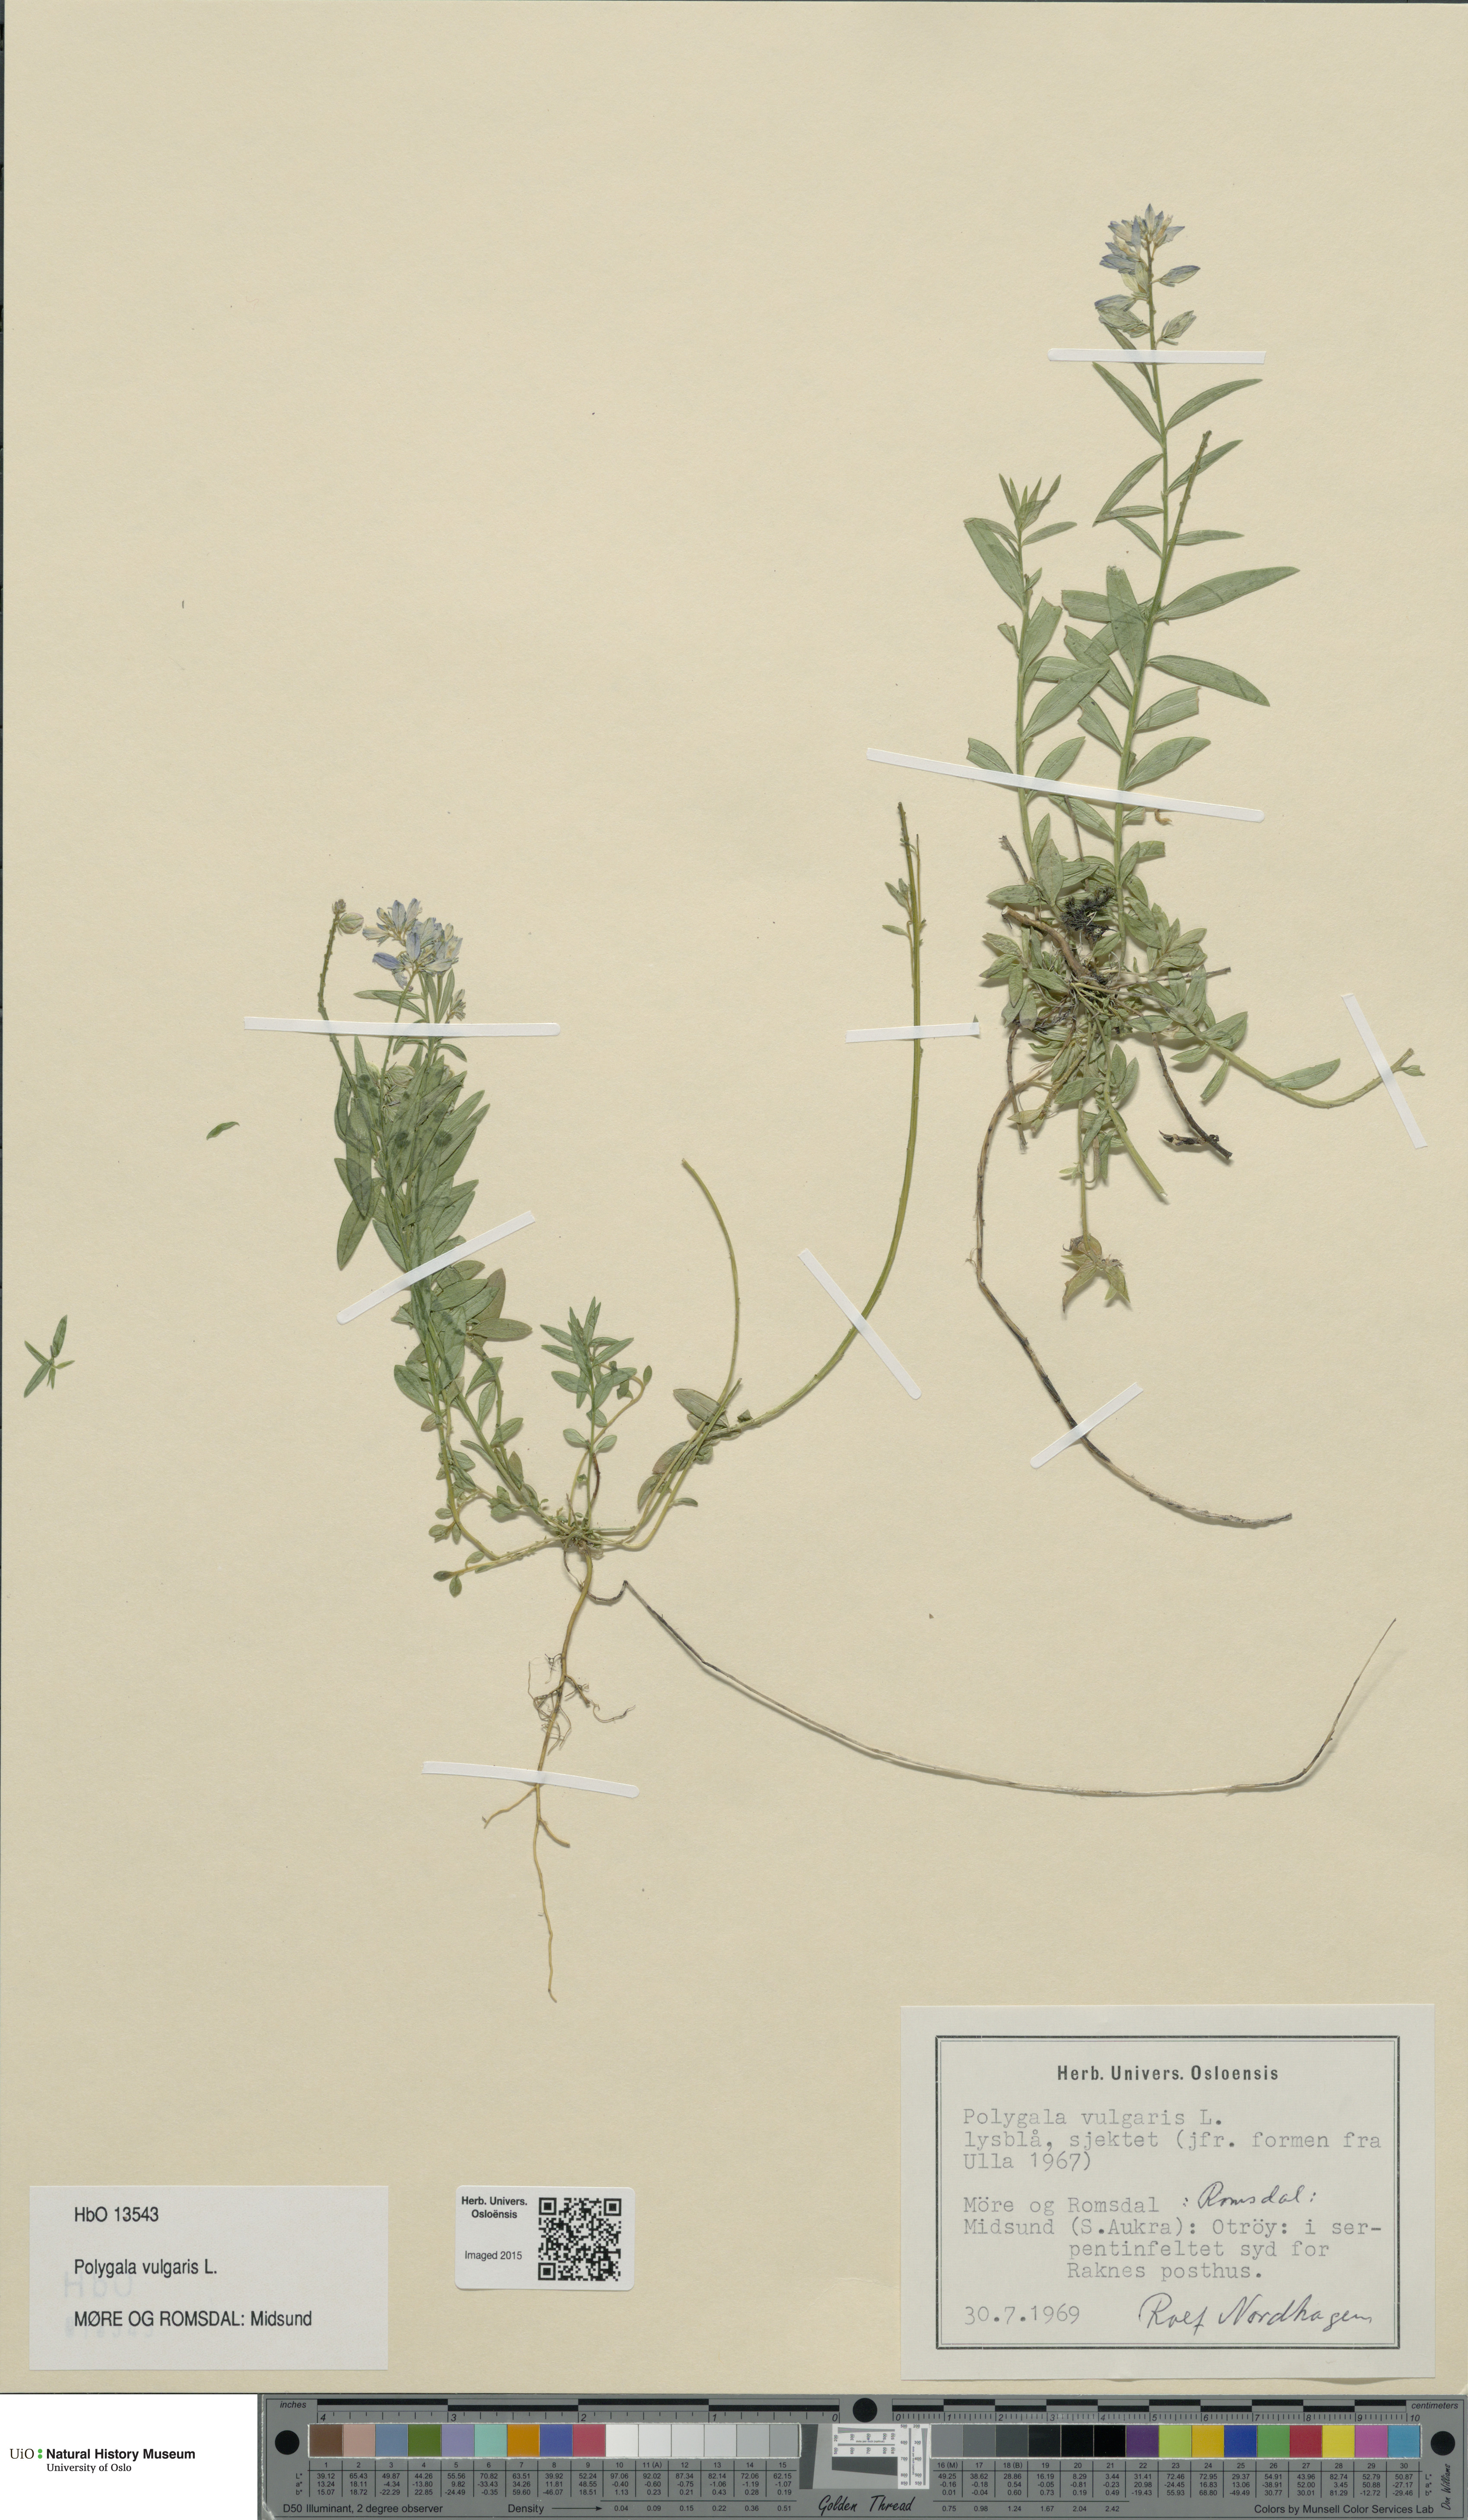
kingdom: Plantae
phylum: Tracheophyta
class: Magnoliopsida
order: Fabales
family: Polygalaceae
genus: Polygala
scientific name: Polygala vulgaris
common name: Common milkwort
